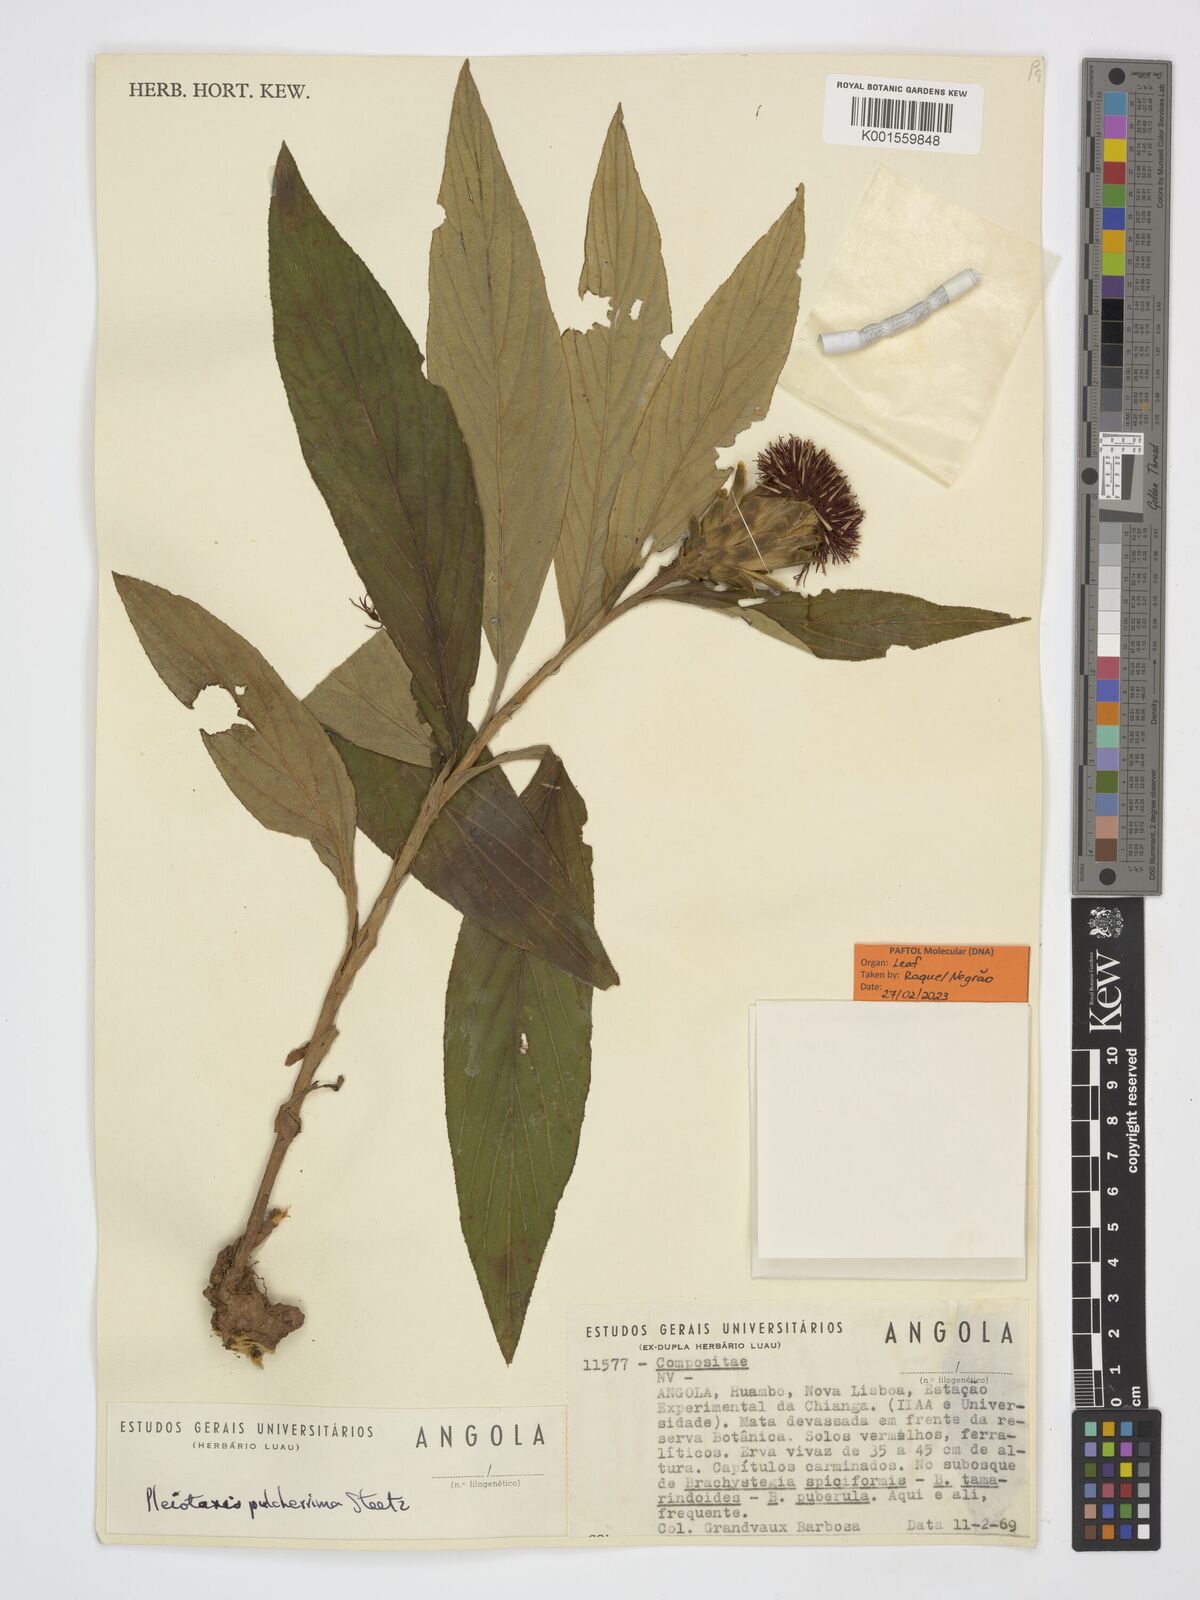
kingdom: Plantae
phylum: Tracheophyta
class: Magnoliopsida
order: Asterales
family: Asteraceae
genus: Pleiotaxis
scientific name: Pleiotaxis pulcherrima
